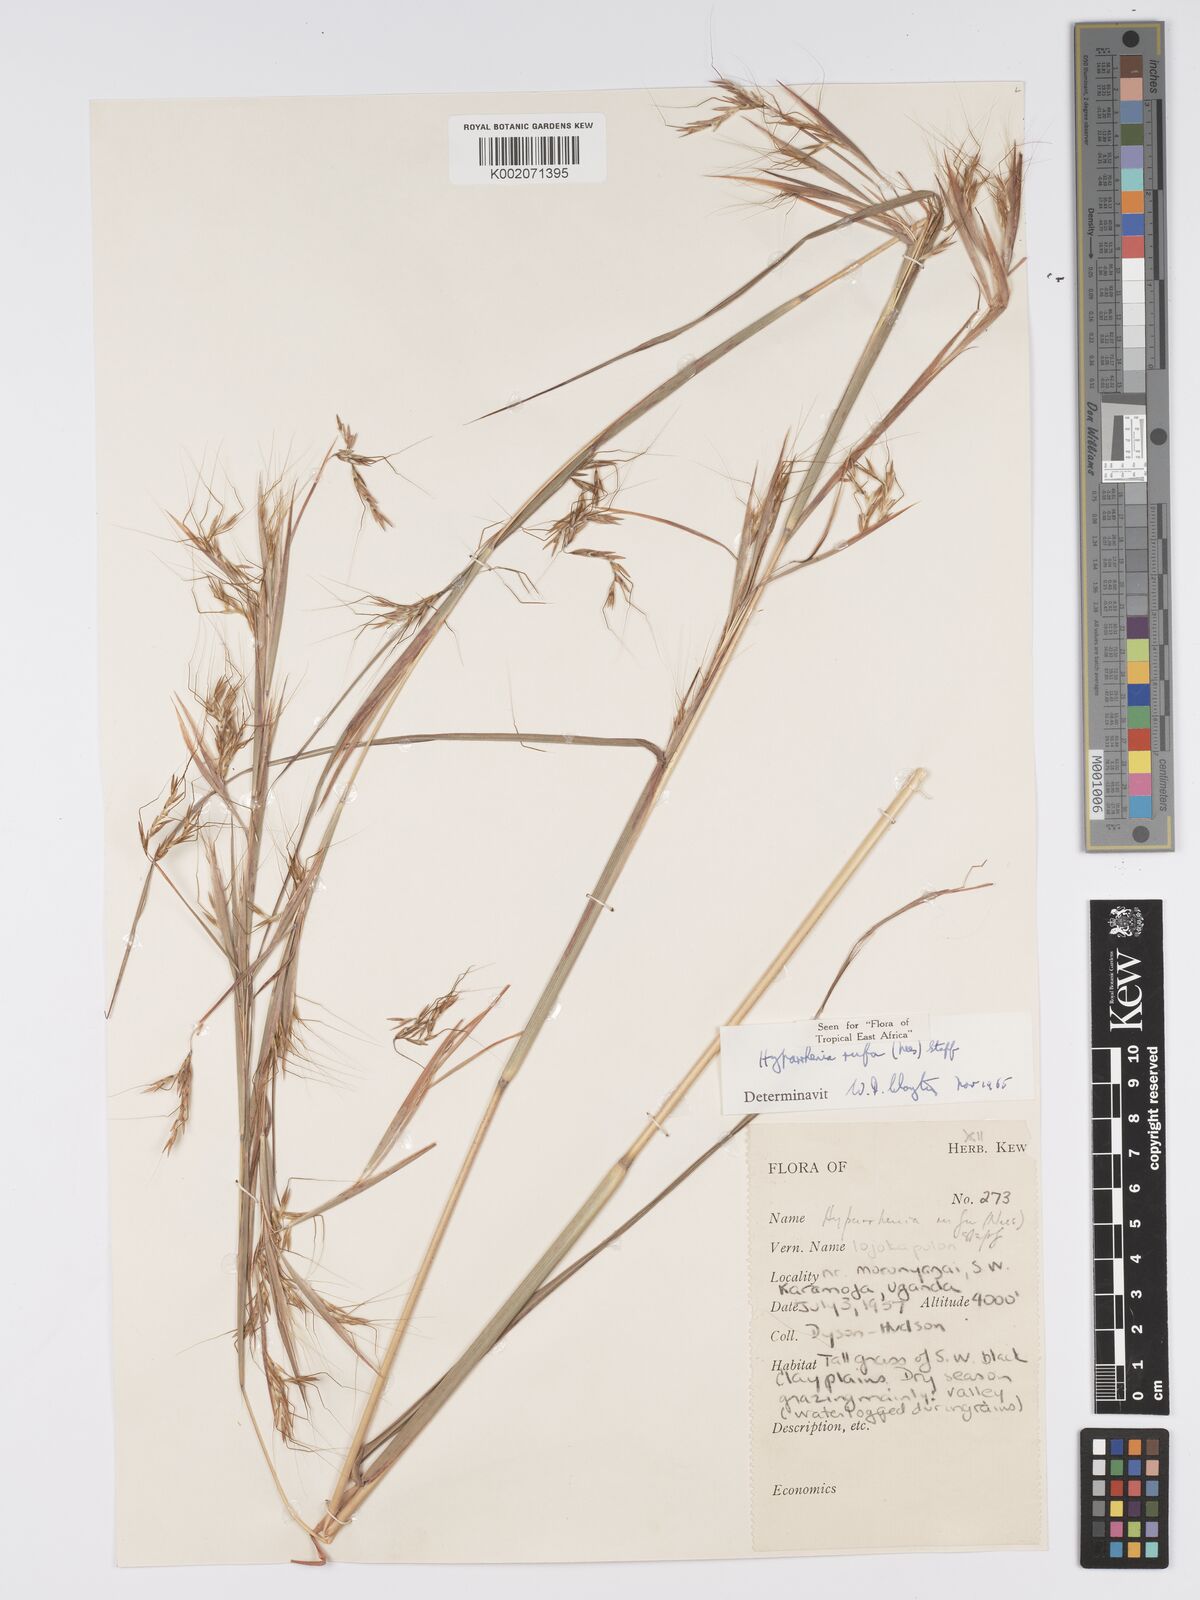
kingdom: Plantae
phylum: Tracheophyta
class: Liliopsida
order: Poales
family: Poaceae
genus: Hyparrhenia
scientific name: Hyparrhenia rufa
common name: Jaraguagrass
